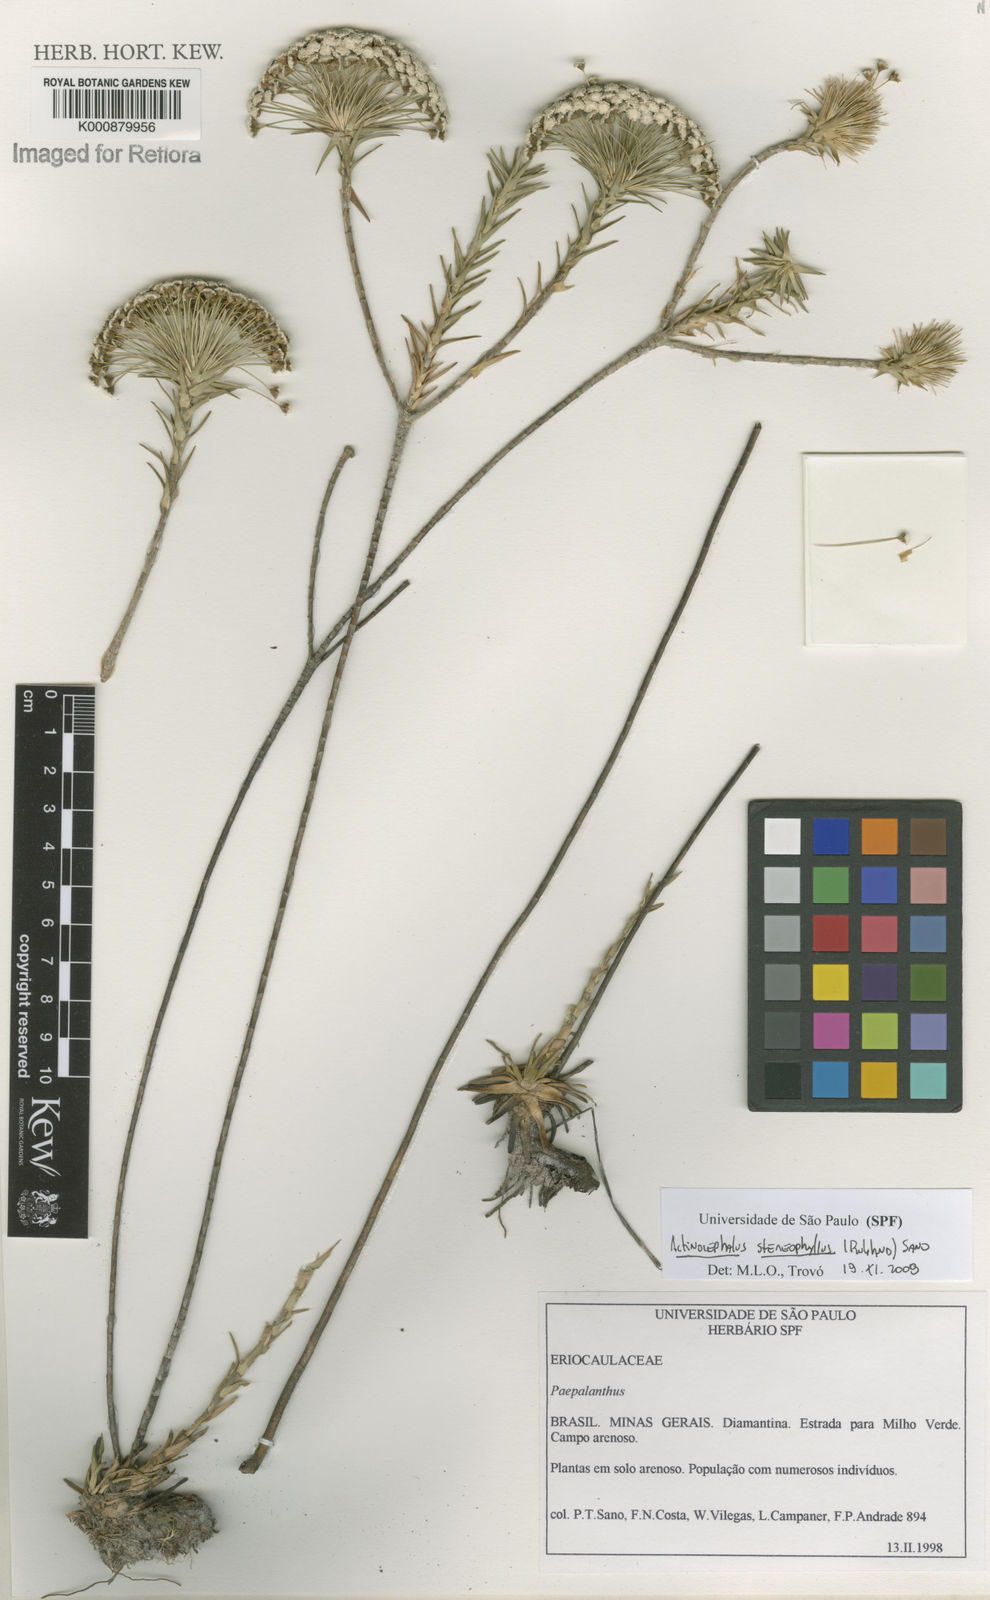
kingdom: Plantae
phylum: Tracheophyta
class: Liliopsida
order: Poales
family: Eriocaulaceae
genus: Paepalanthus
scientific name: Paepalanthus stereophyllus
